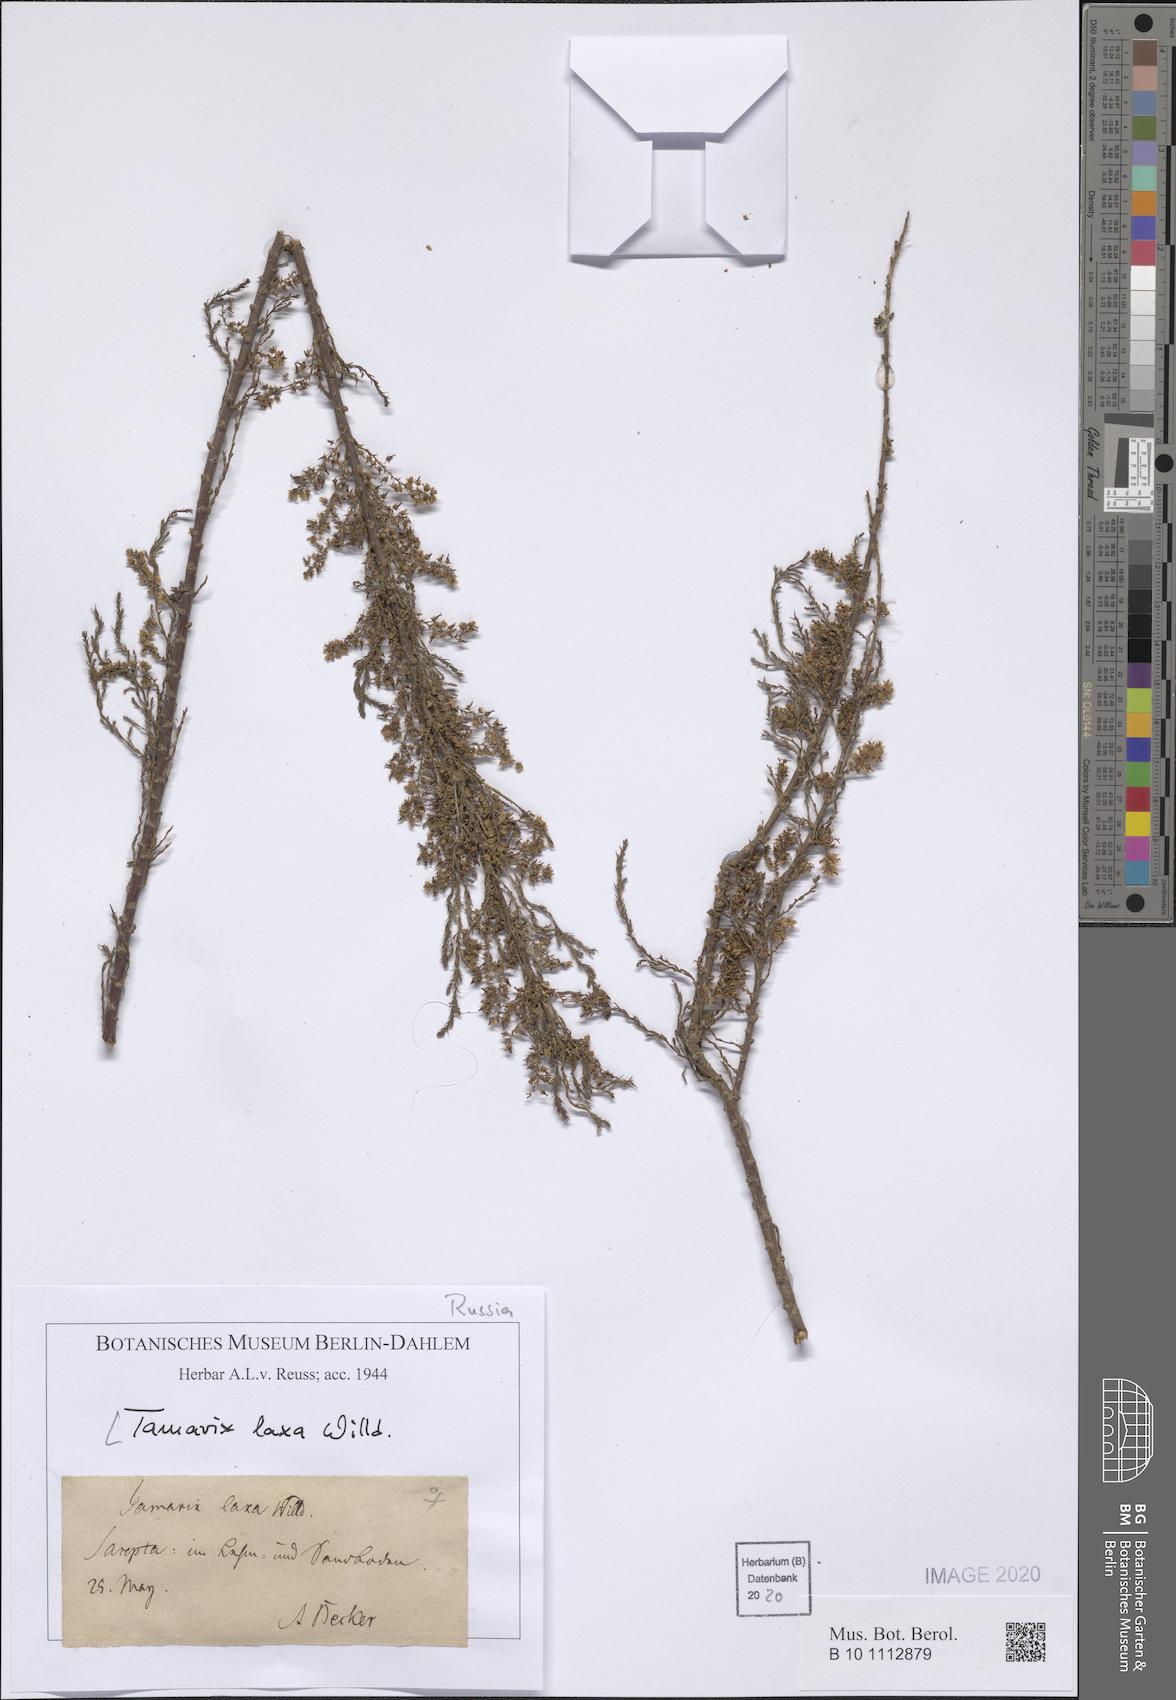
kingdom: Plantae
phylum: Tracheophyta
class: Magnoliopsida
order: Caryophyllales
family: Tamaricaceae
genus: Tamarix
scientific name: Tamarix laxa
